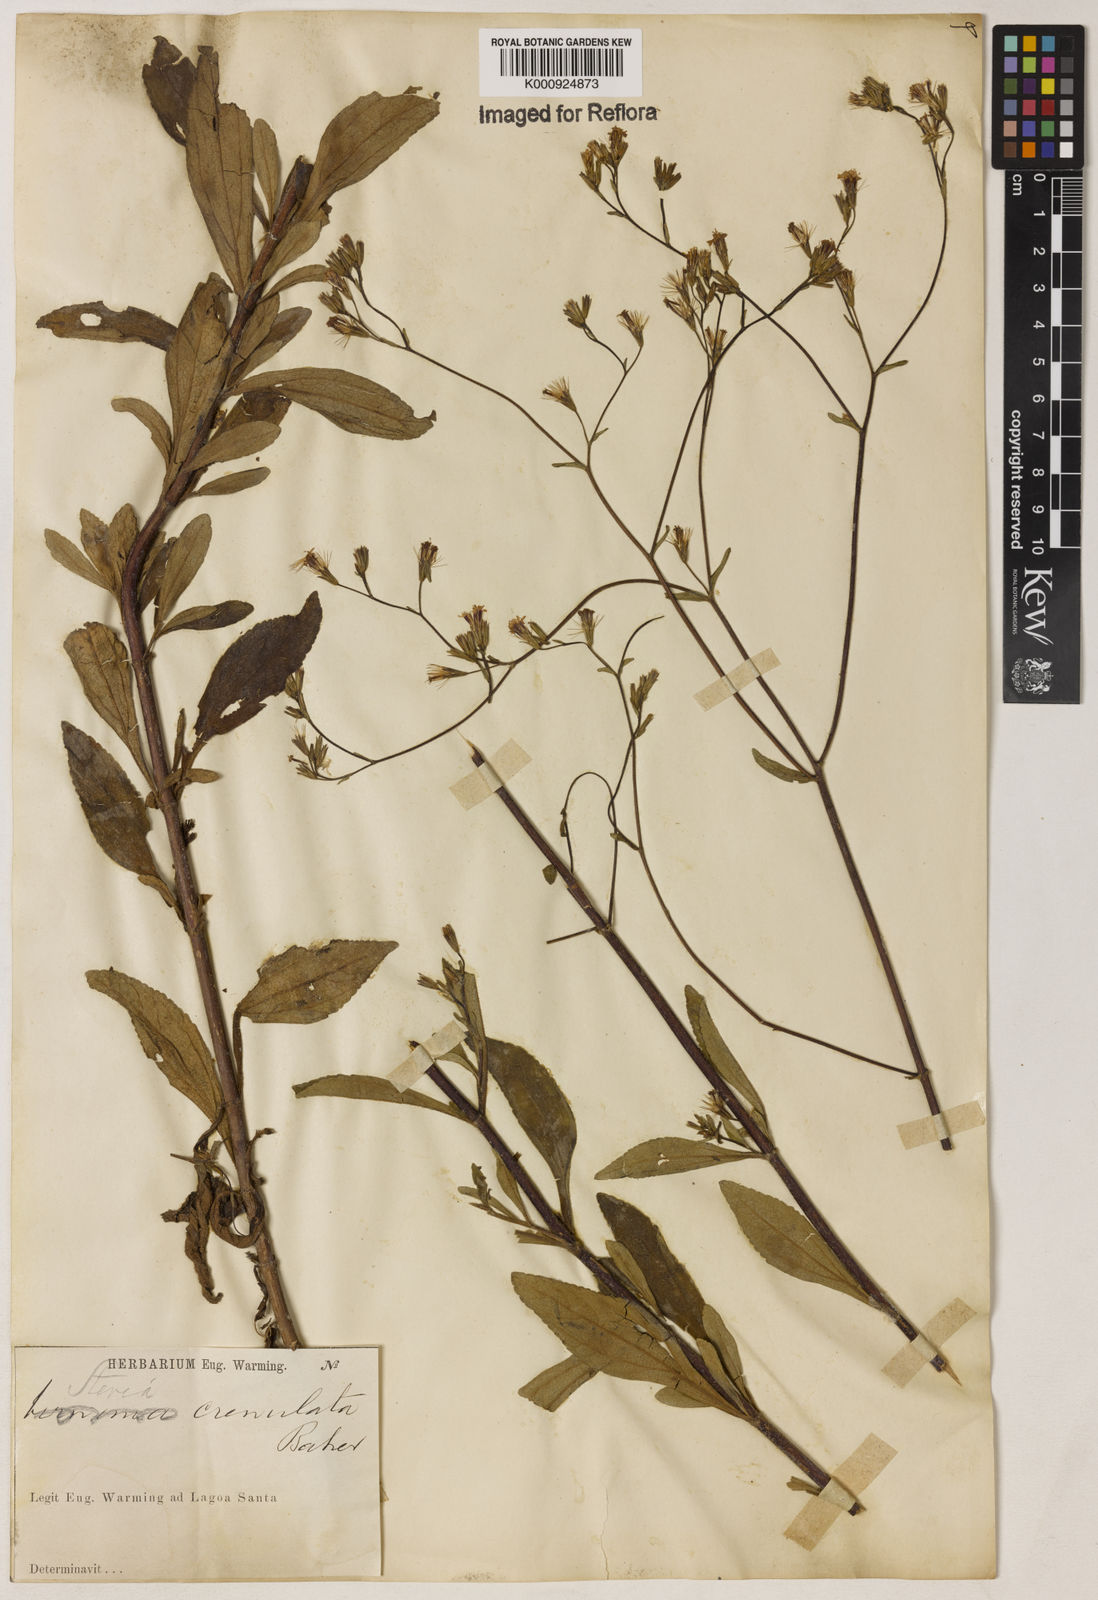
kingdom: Plantae
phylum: Tracheophyta
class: Magnoliopsida
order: Asterales
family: Asteraceae
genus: Stevia
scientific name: Stevia crenulata
